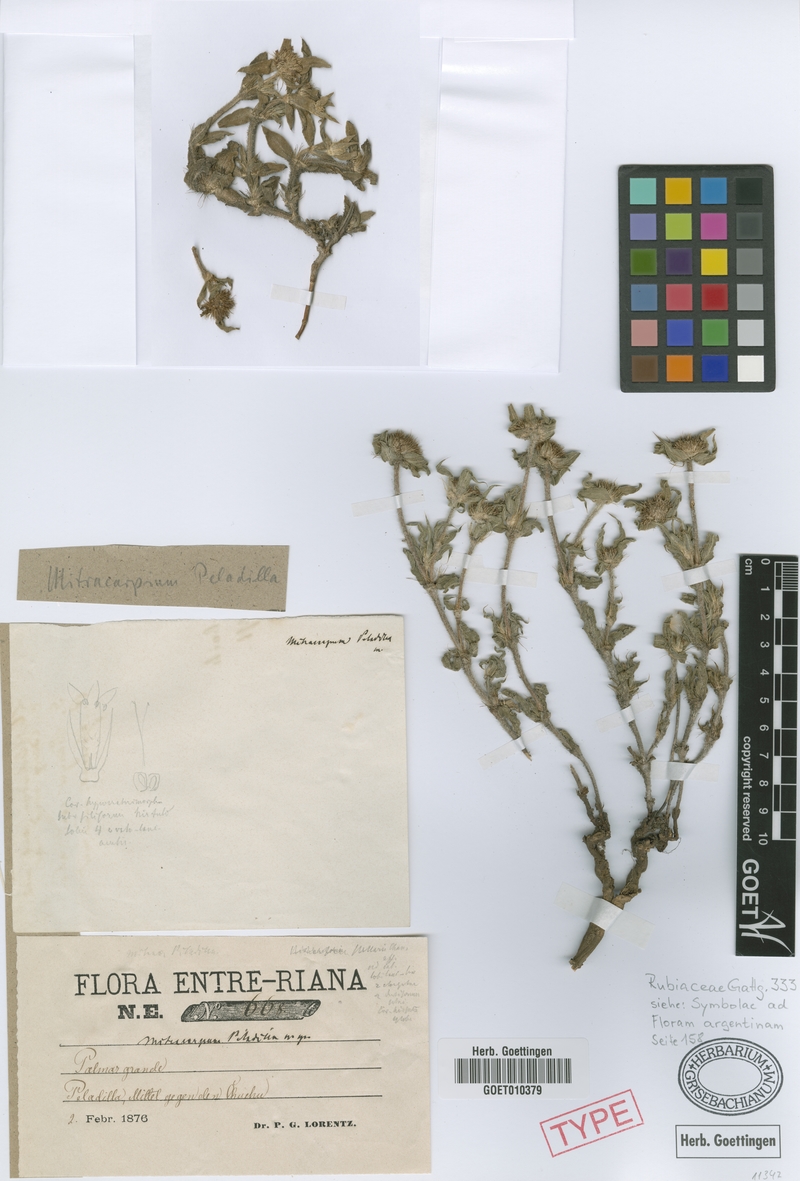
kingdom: Plantae
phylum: Tracheophyta
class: Magnoliopsida
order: Gentianales
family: Rubiaceae
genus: Mitracarpus
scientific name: Mitracarpus megapotamicus
